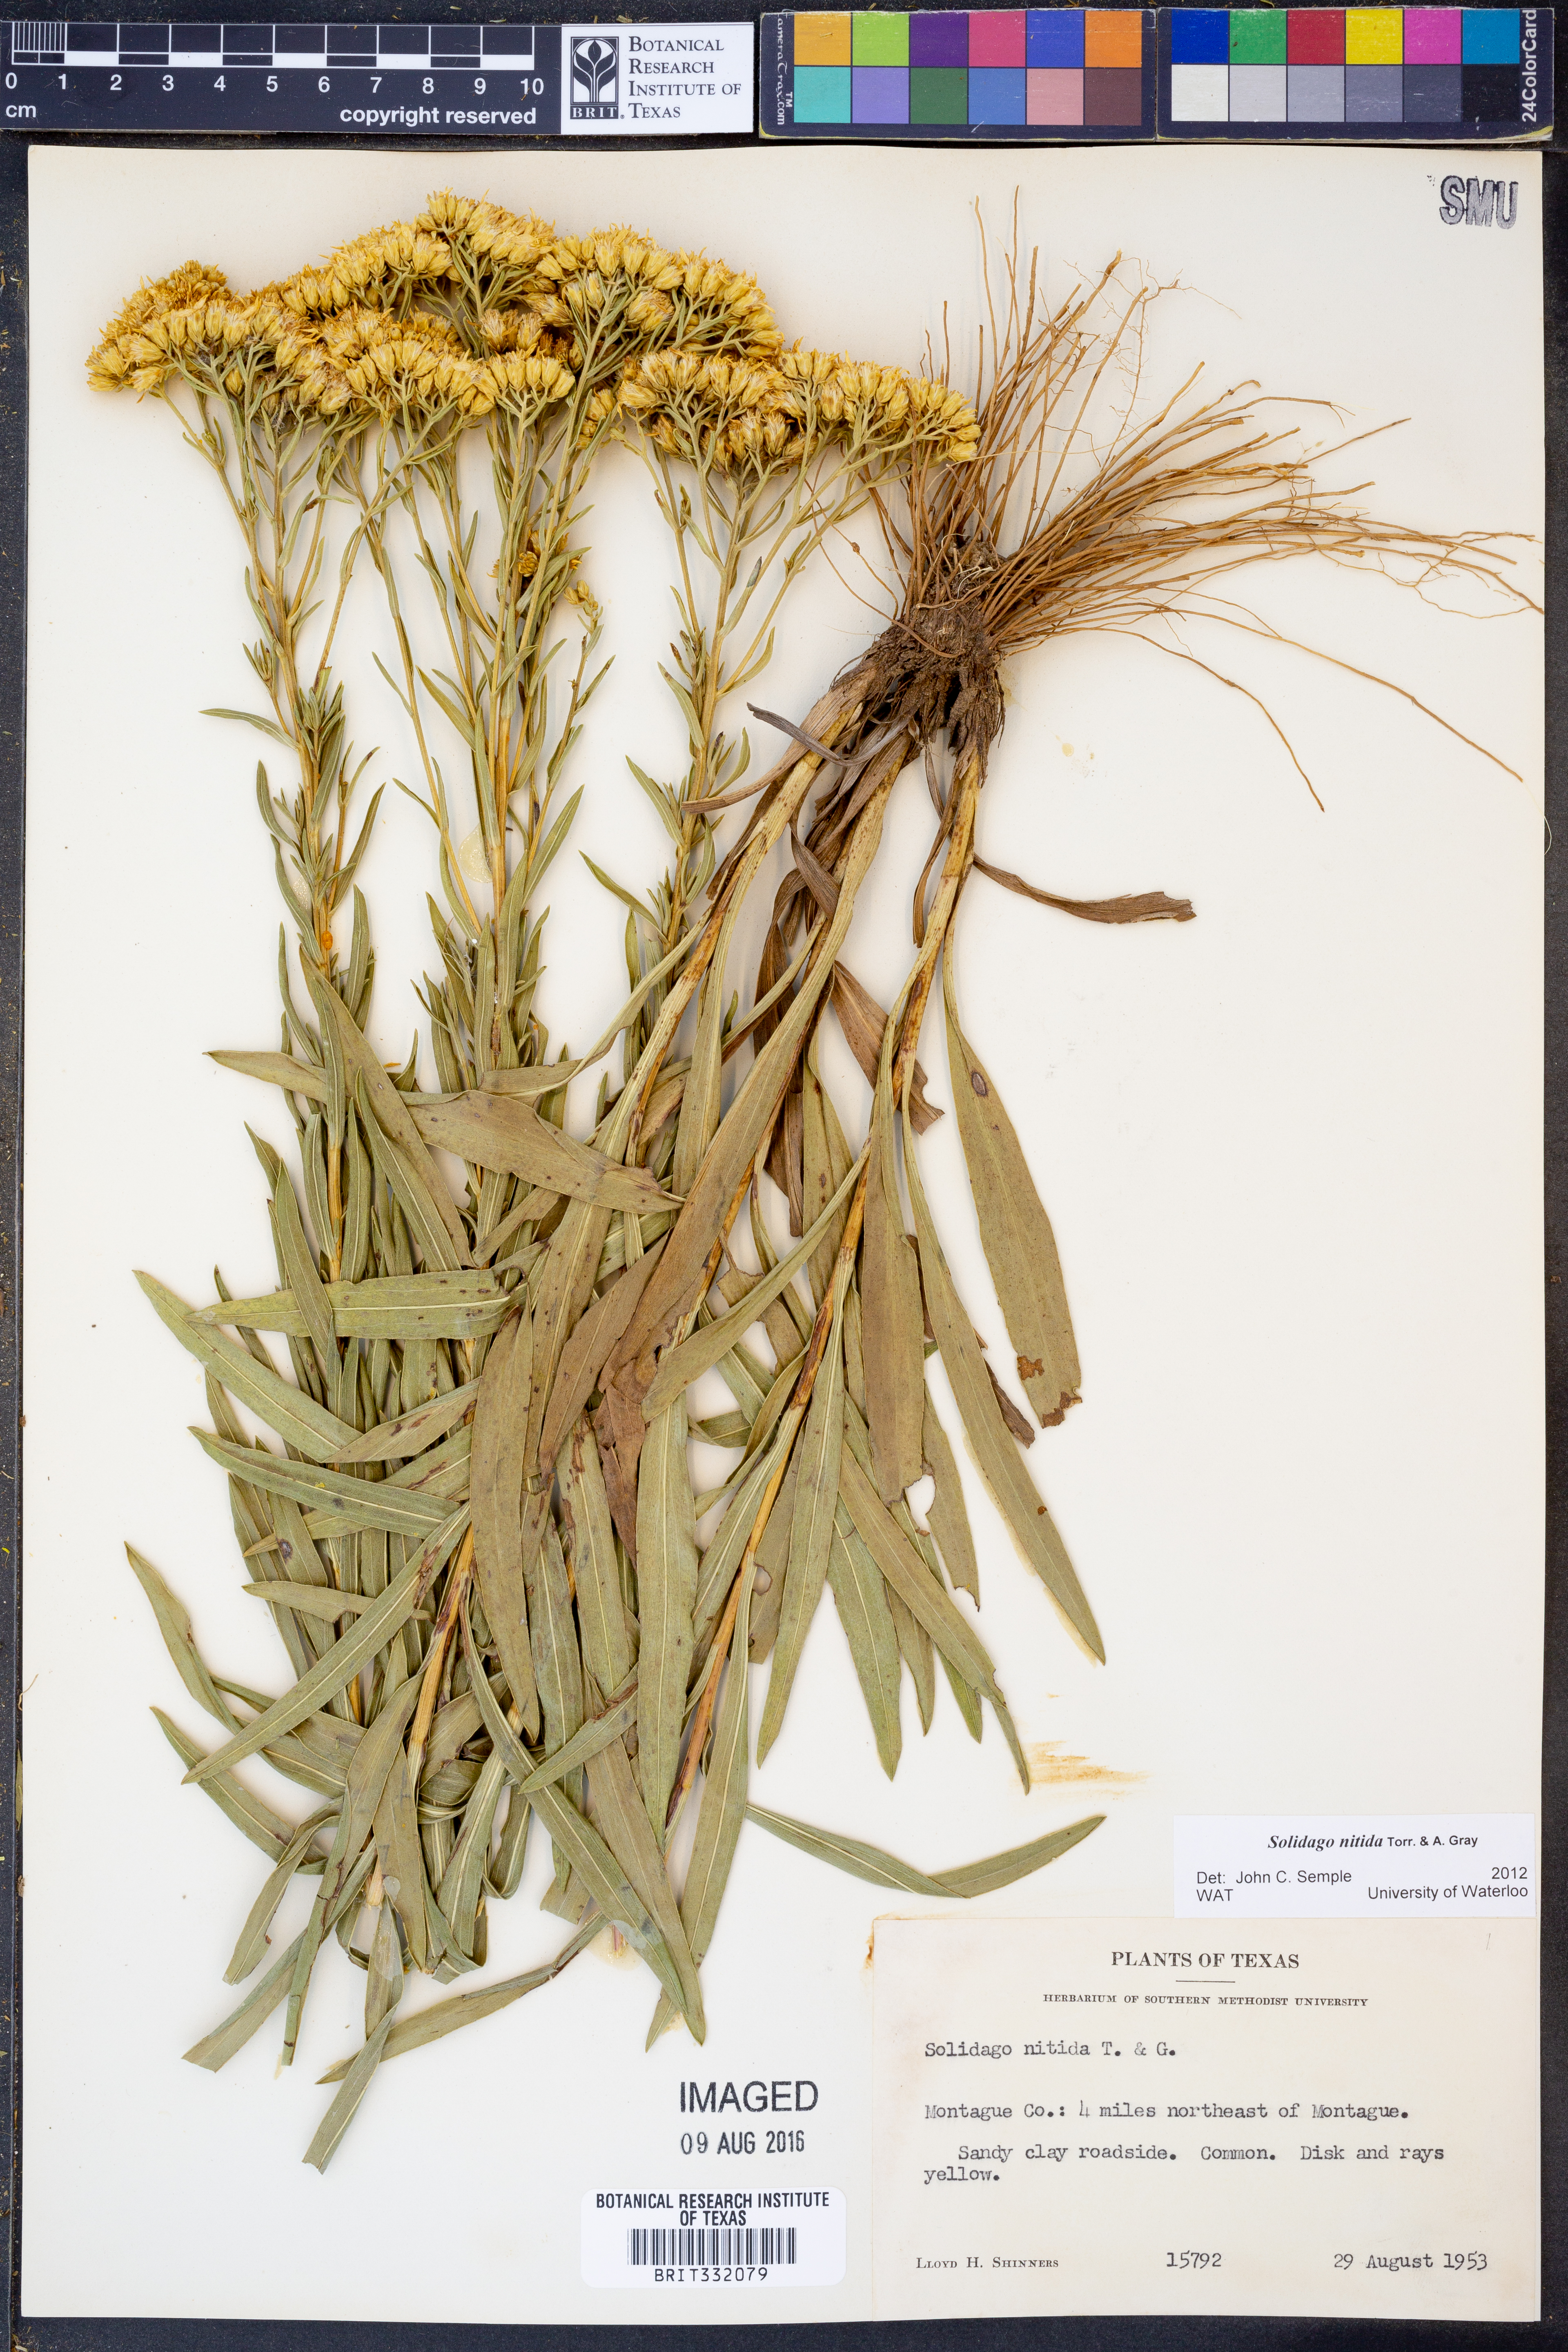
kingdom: Plantae
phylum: Tracheophyta
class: Magnoliopsida
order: Asterales
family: Asteraceae
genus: Solidago
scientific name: Solidago nitida
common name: Shiny goldenrod
